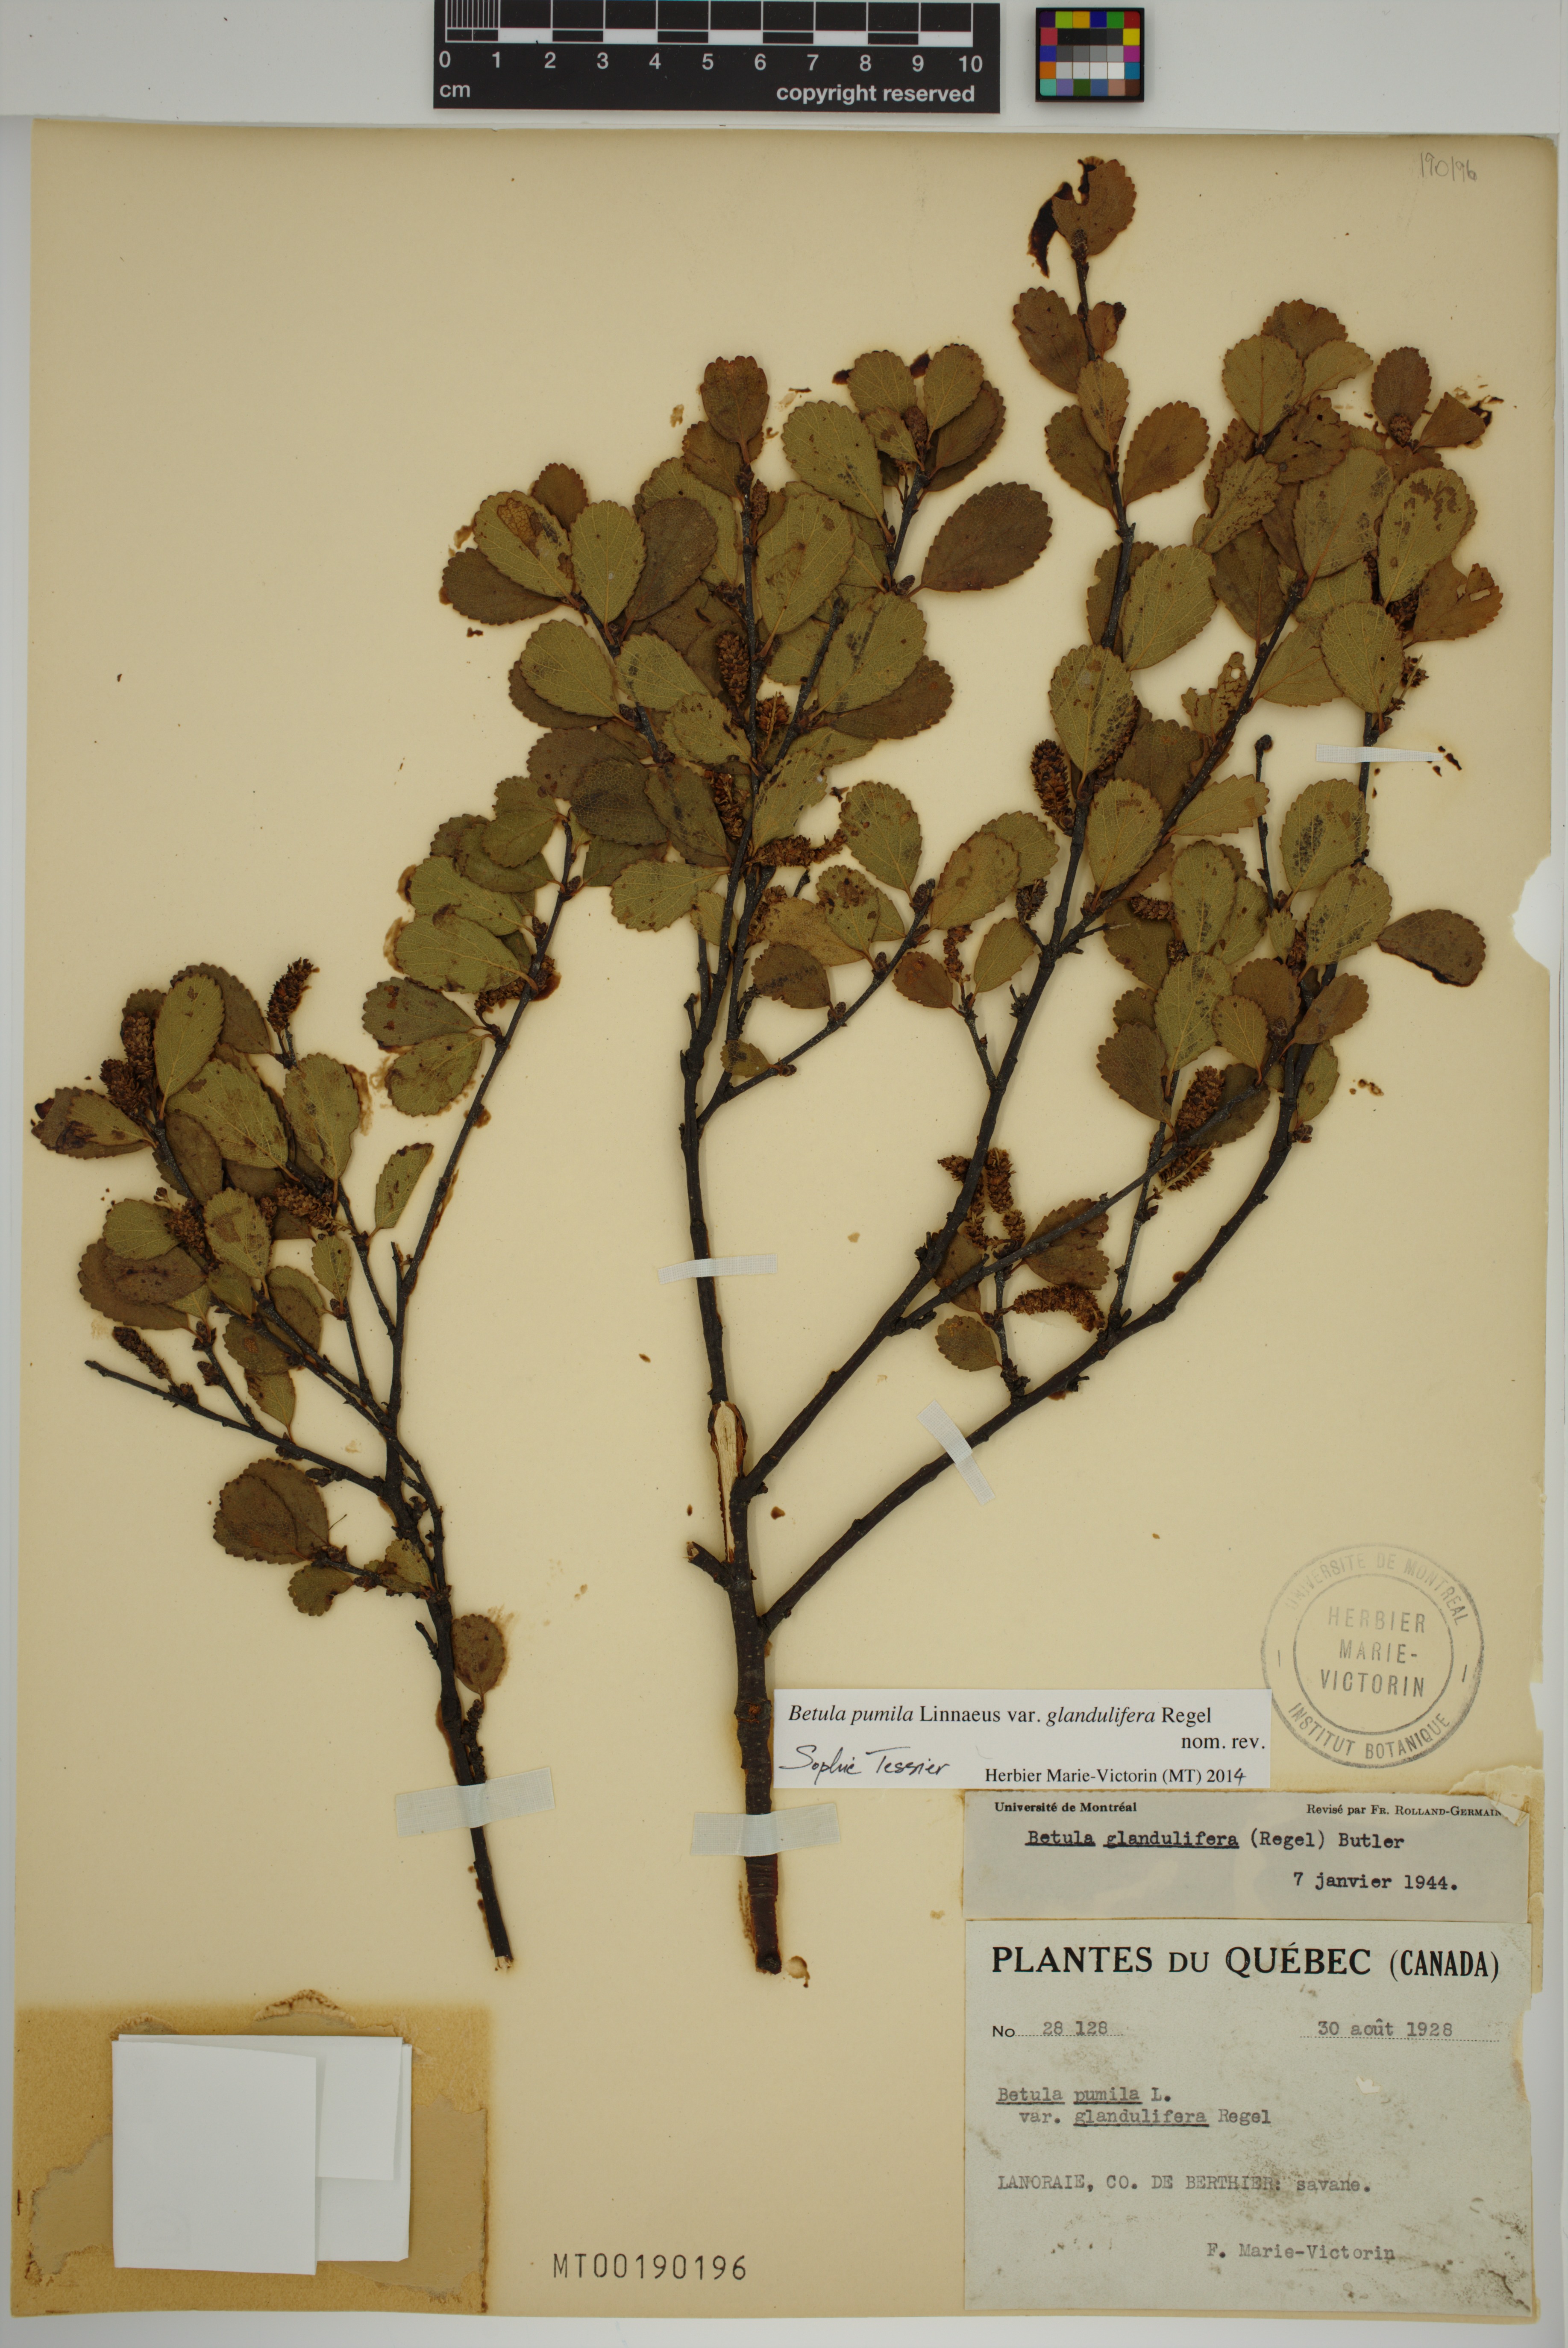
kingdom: Plantae
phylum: Tracheophyta
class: Magnoliopsida
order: Fagales
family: Betulaceae
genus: Betula
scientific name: Betula pumila
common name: Bog birch
